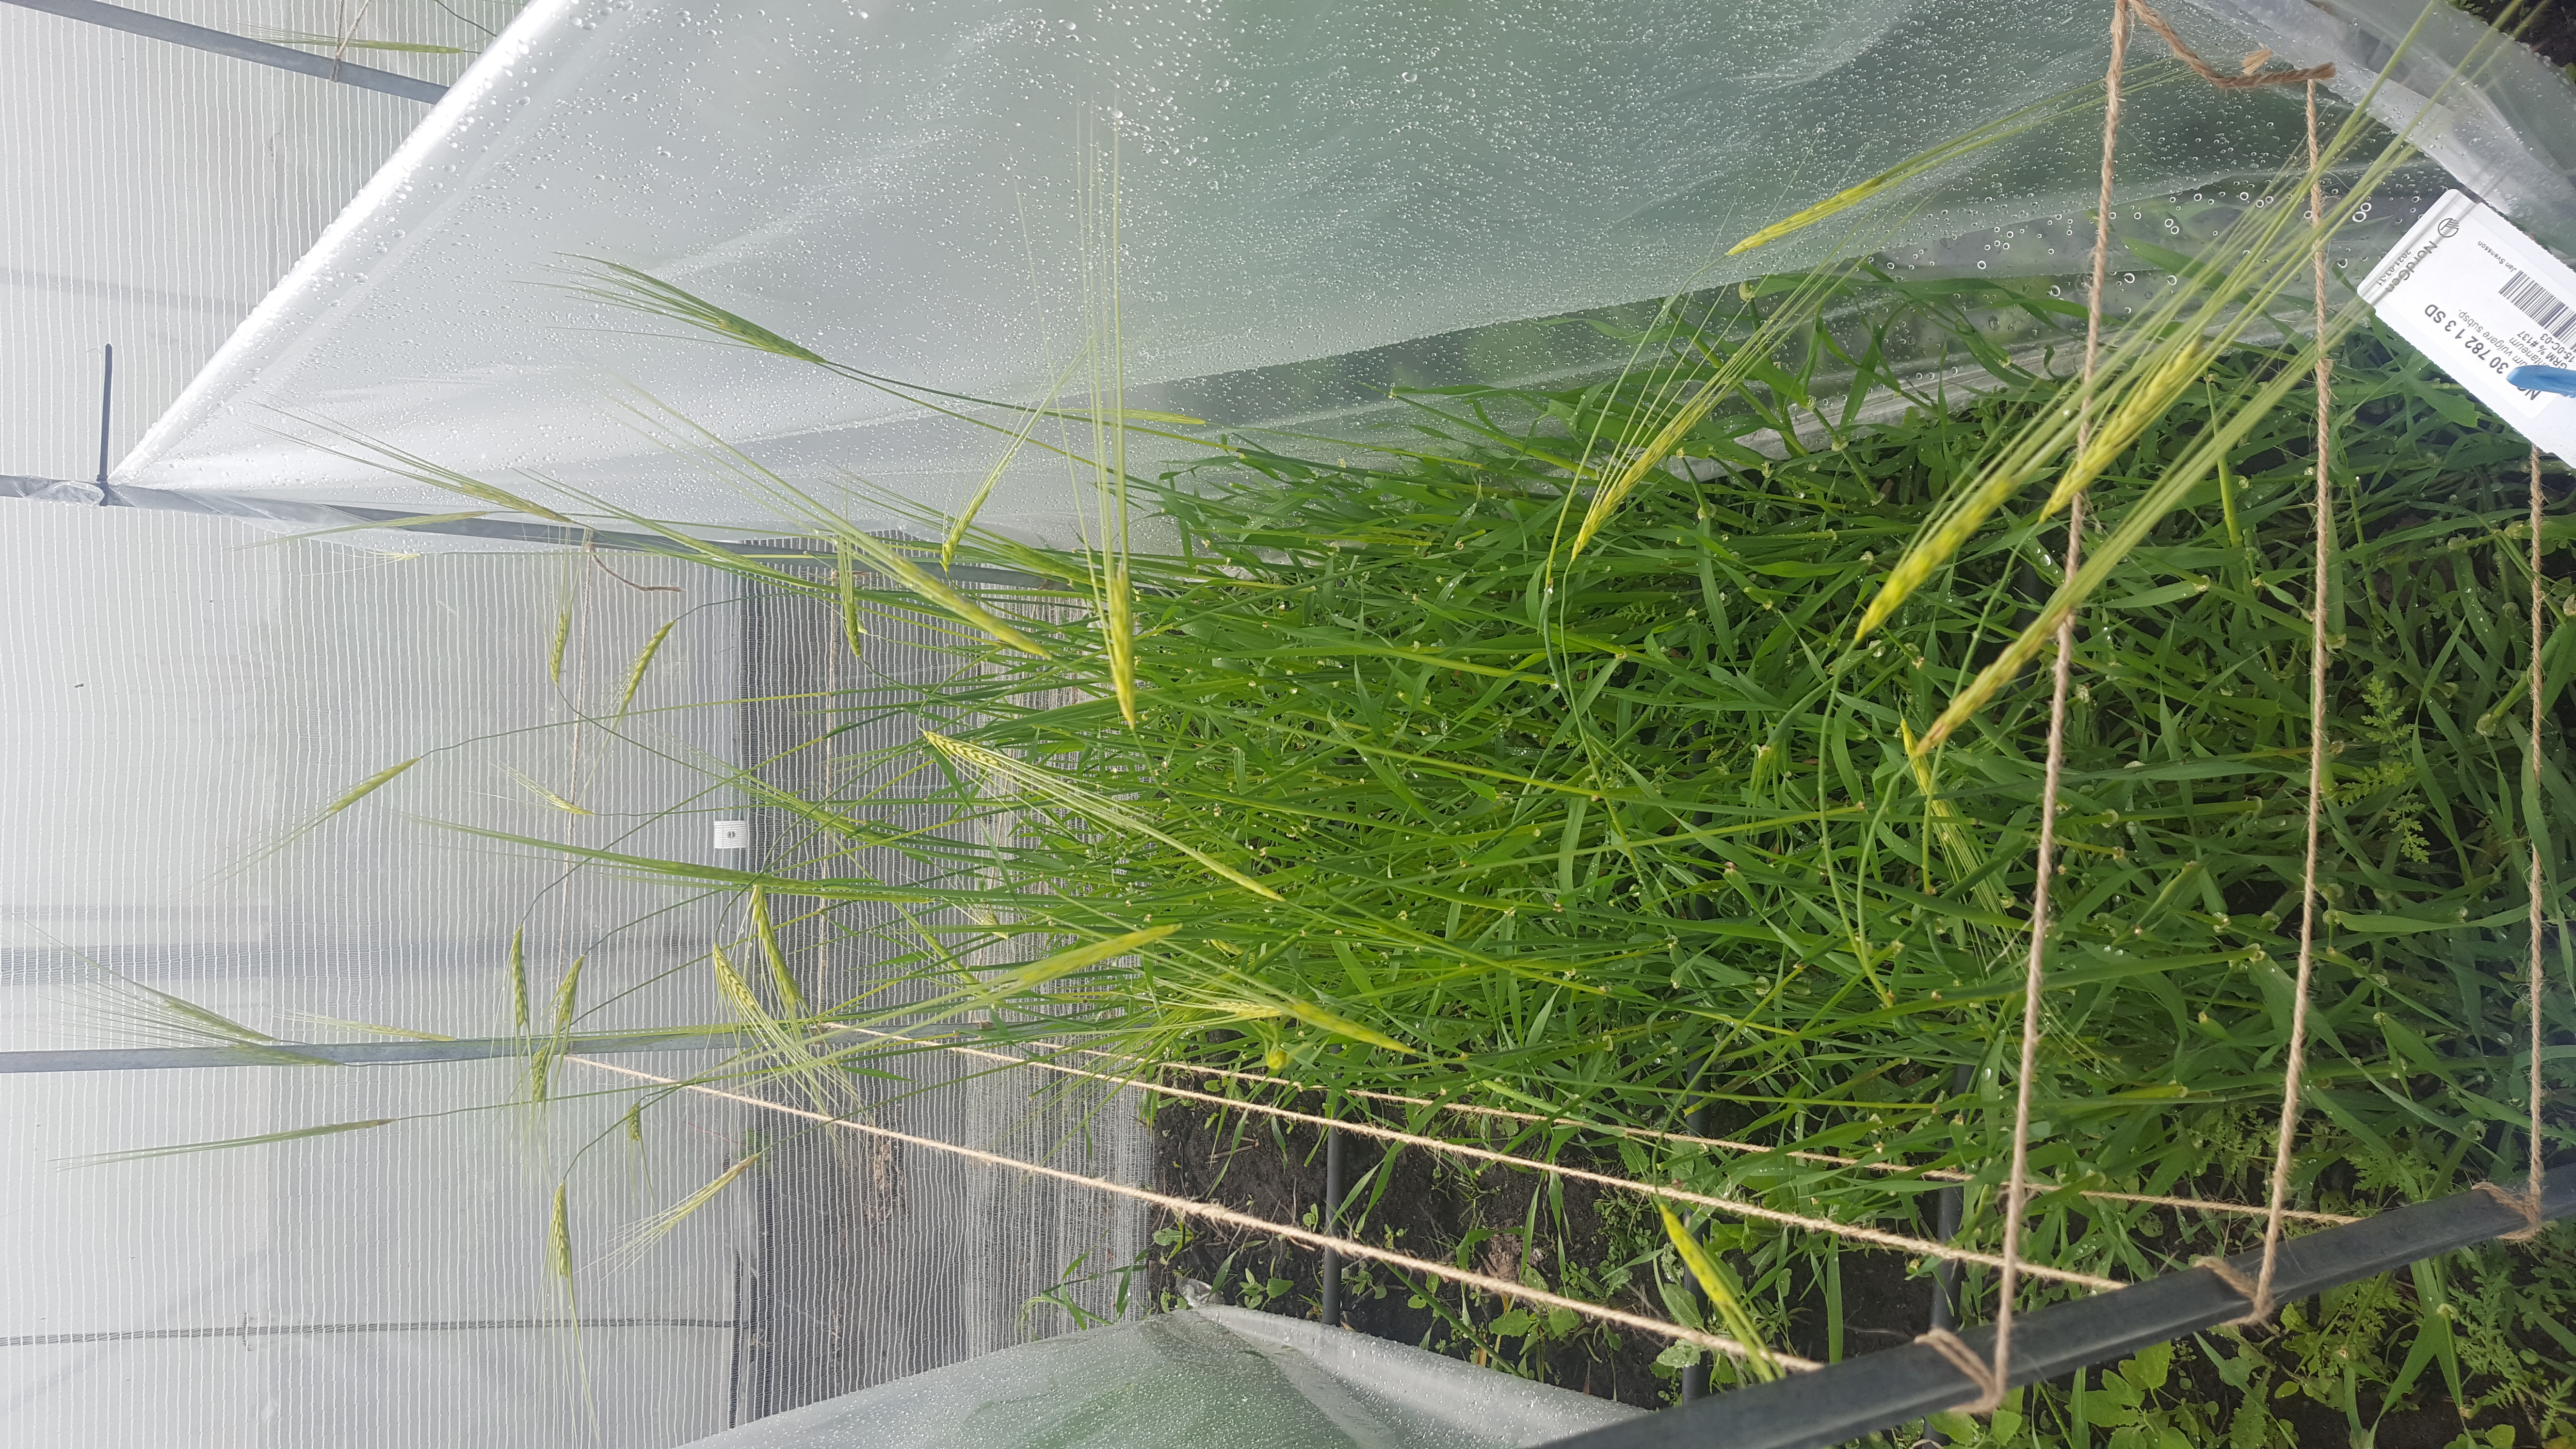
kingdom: Plantae
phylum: Tracheophyta
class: Liliopsida
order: Poales
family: Poaceae
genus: Hordeum
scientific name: Hordeum spontaneum
